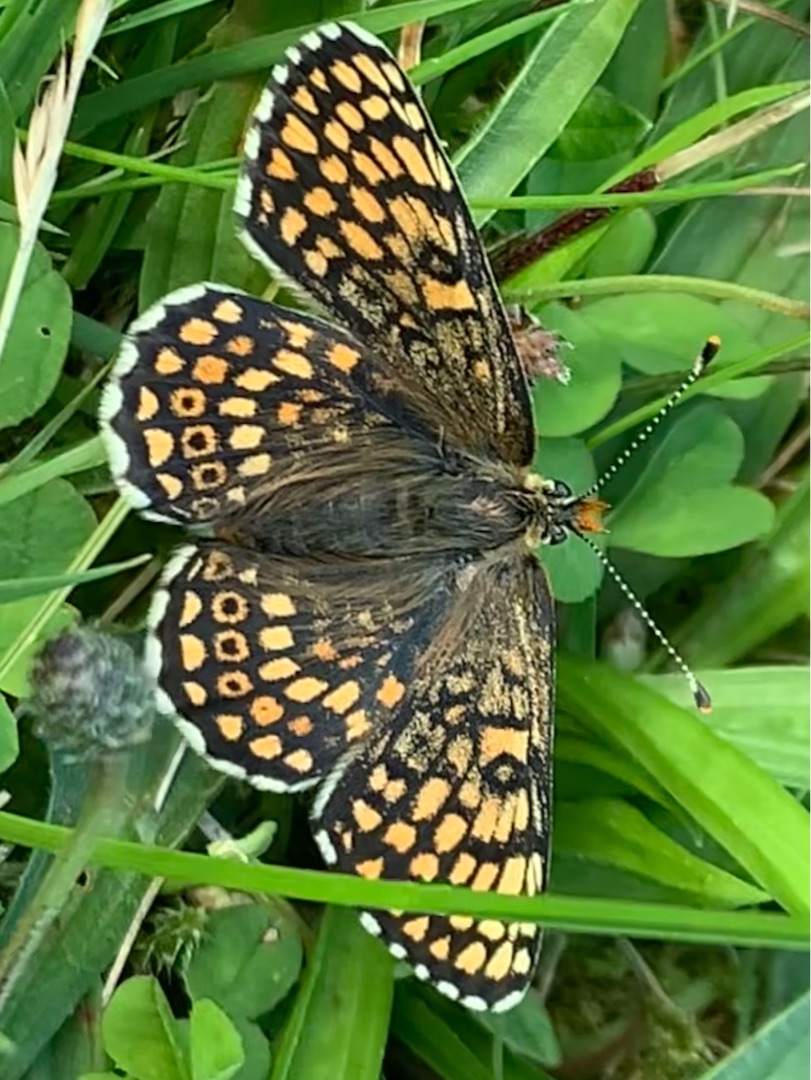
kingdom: Animalia
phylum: Arthropoda
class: Insecta
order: Lepidoptera
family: Nymphalidae
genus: Melitaea
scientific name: Melitaea cinxia
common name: Okkergul pletvinge
